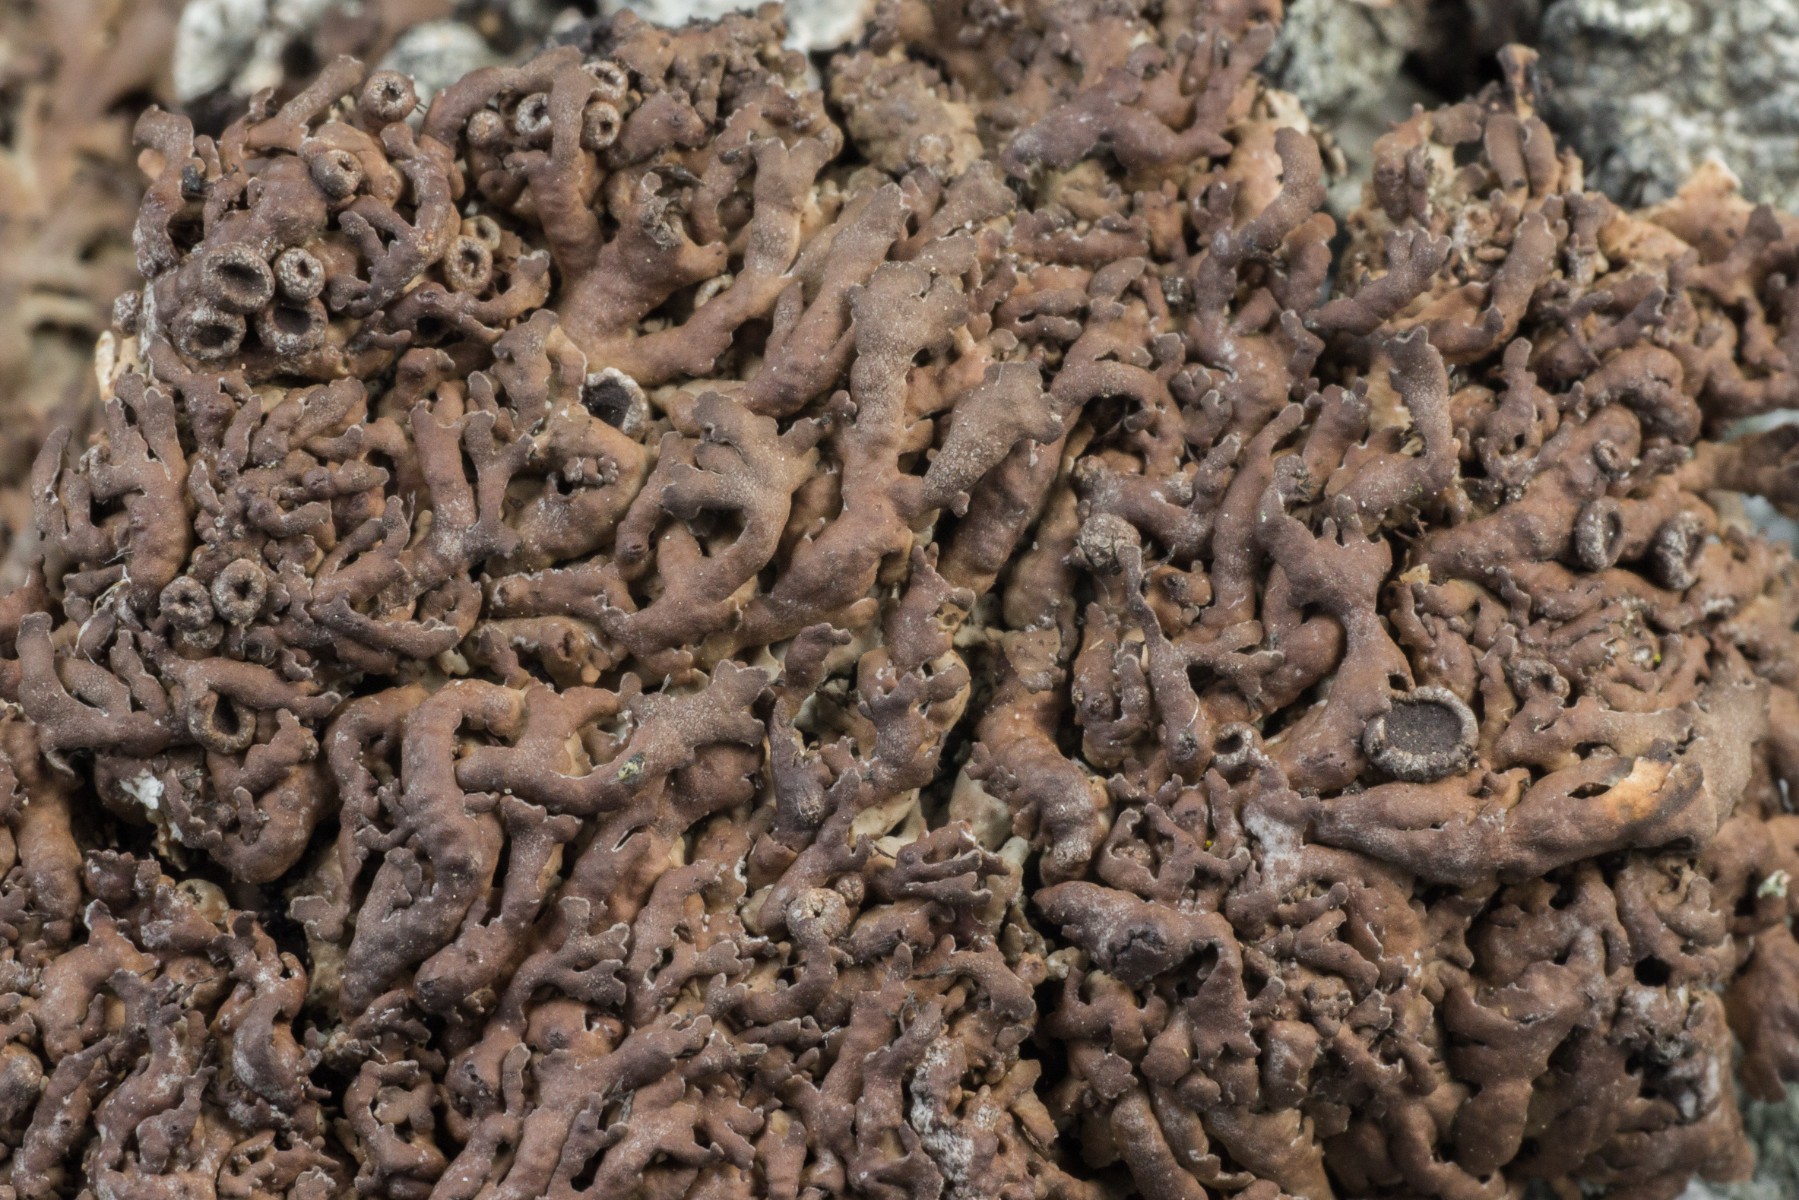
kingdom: Fungi
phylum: Ascomycota
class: Lecanoromycetes
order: Caliciales
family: Physciaceae
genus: Kurokawia
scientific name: Kurokawia runcinata
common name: brun frynselav
